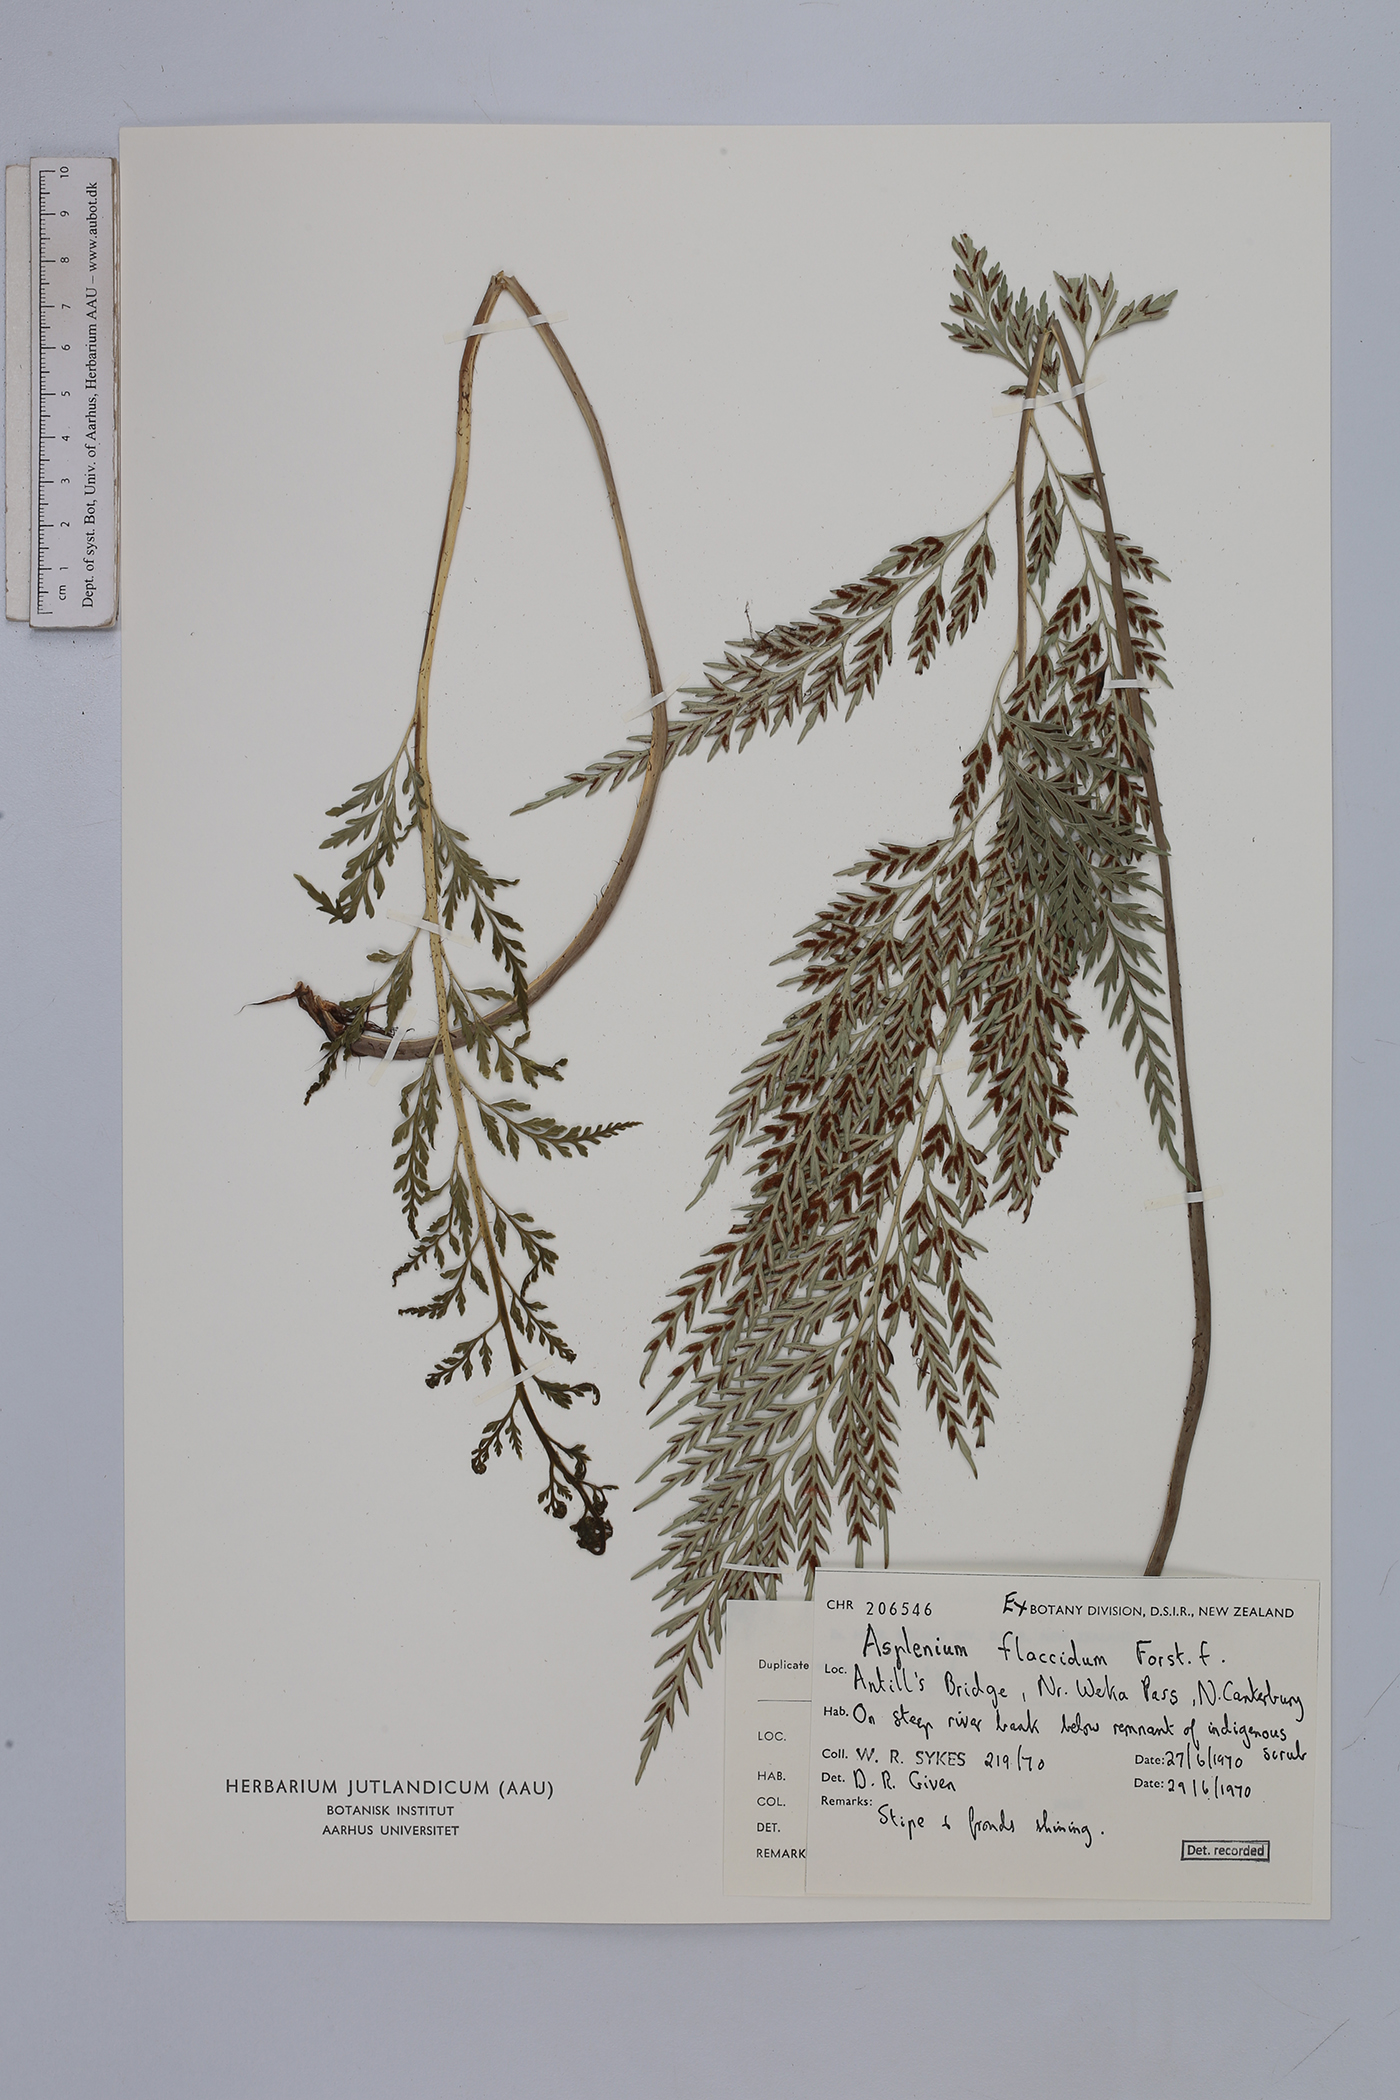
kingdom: Plantae
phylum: Tracheophyta
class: Polypodiopsida
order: Polypodiales
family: Aspleniaceae
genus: Asplenium
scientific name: Asplenium flaccidum
